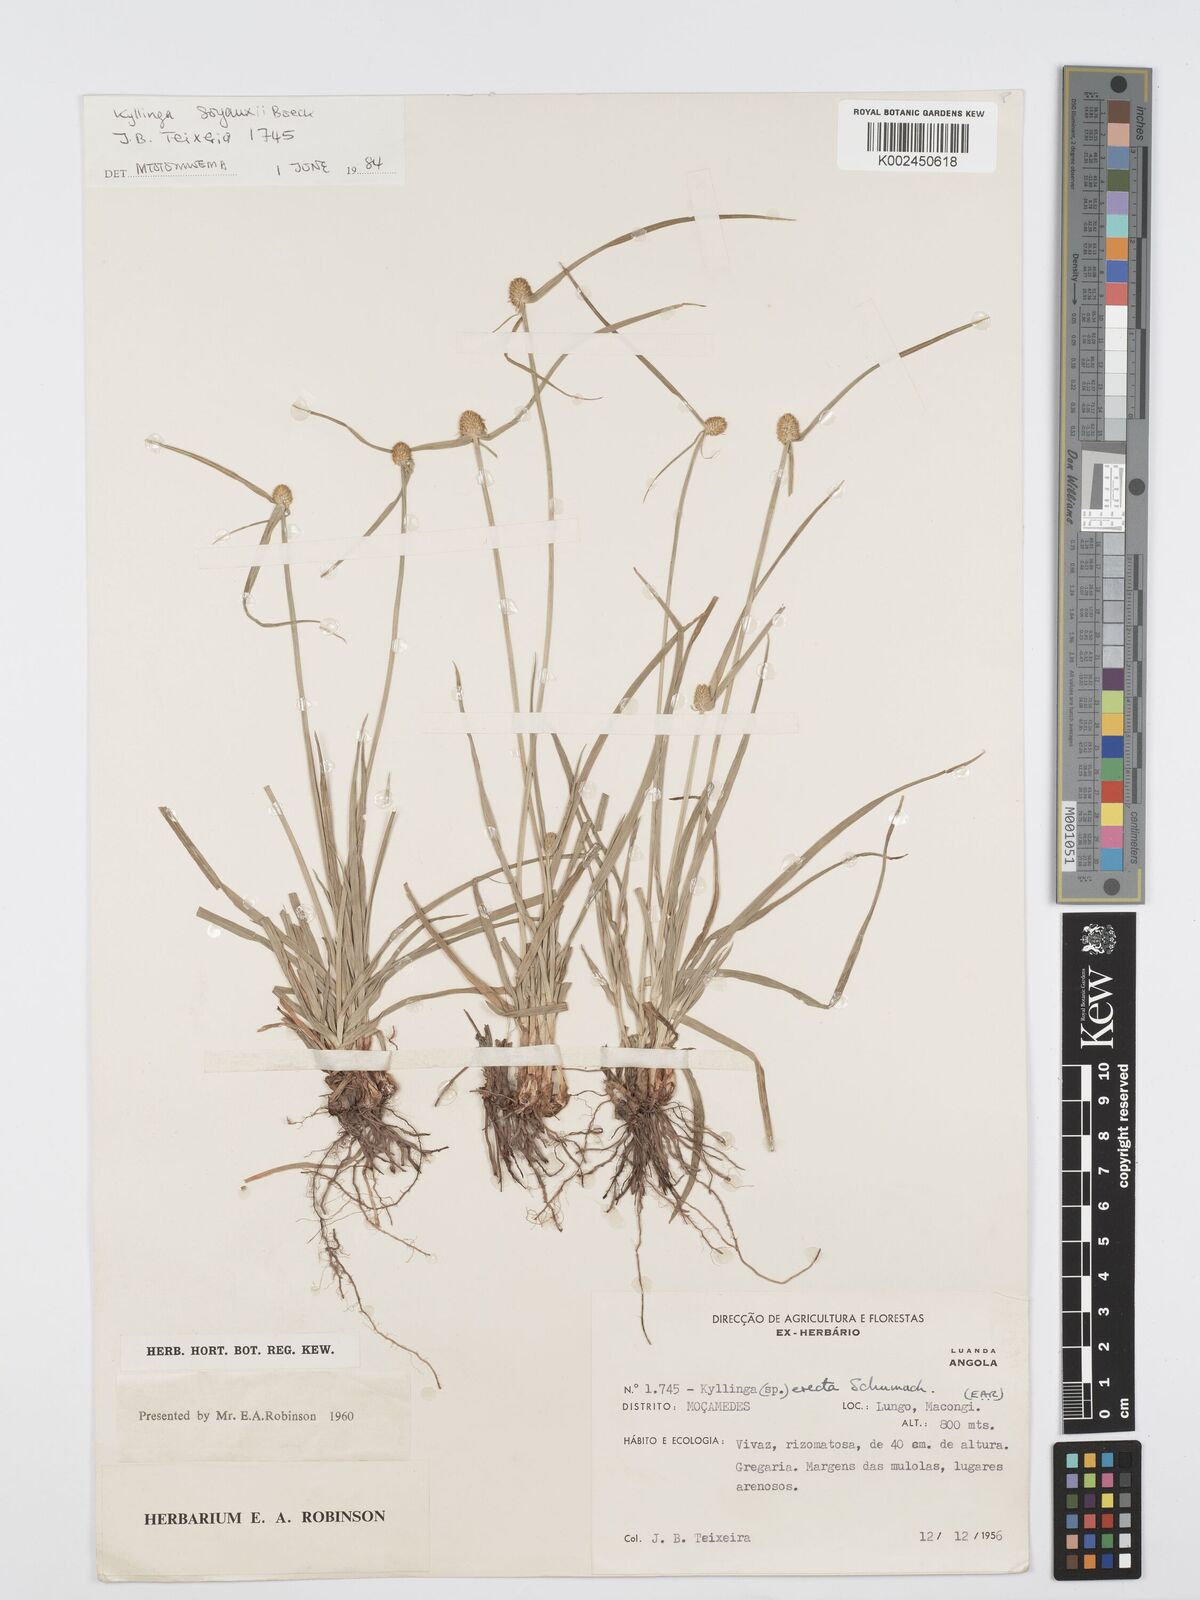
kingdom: Plantae
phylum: Tracheophyta
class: Liliopsida
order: Poales
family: Cyperaceae
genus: Cyperus
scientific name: Cyperus erectus
